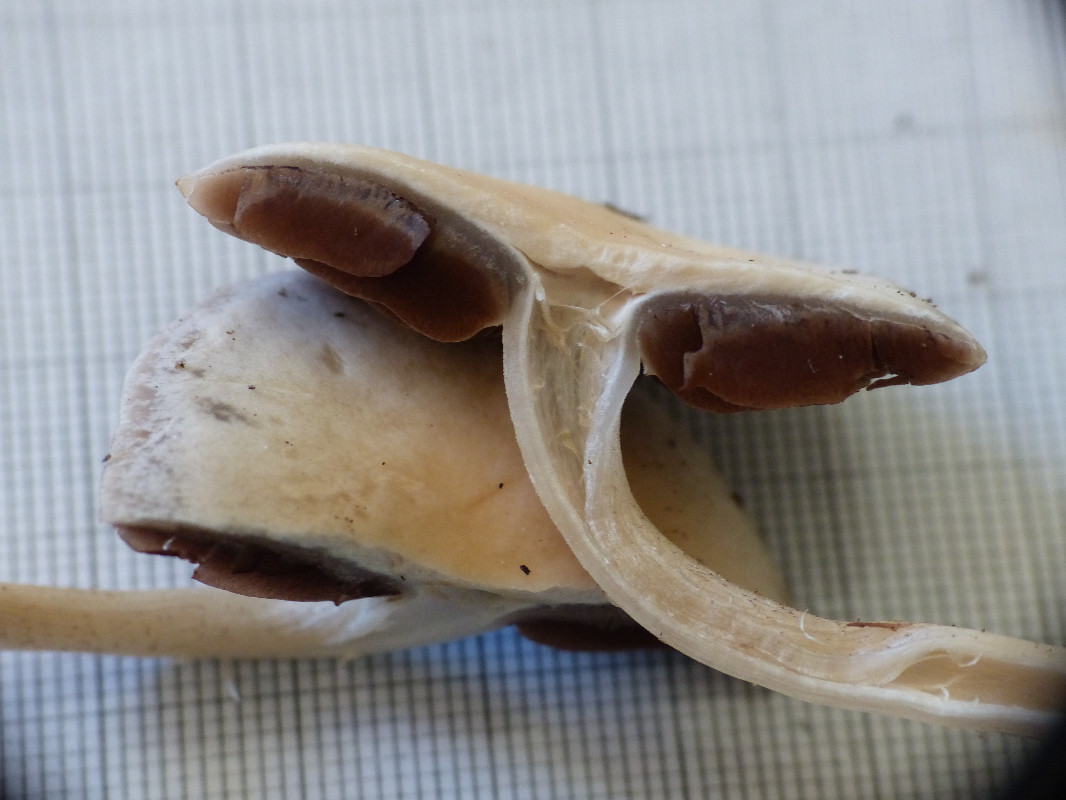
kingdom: Fungi
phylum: Basidiomycota
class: Agaricomycetes
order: Agaricales
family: Psathyrellaceae
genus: Homophron
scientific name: Homophron
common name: mørkhat
